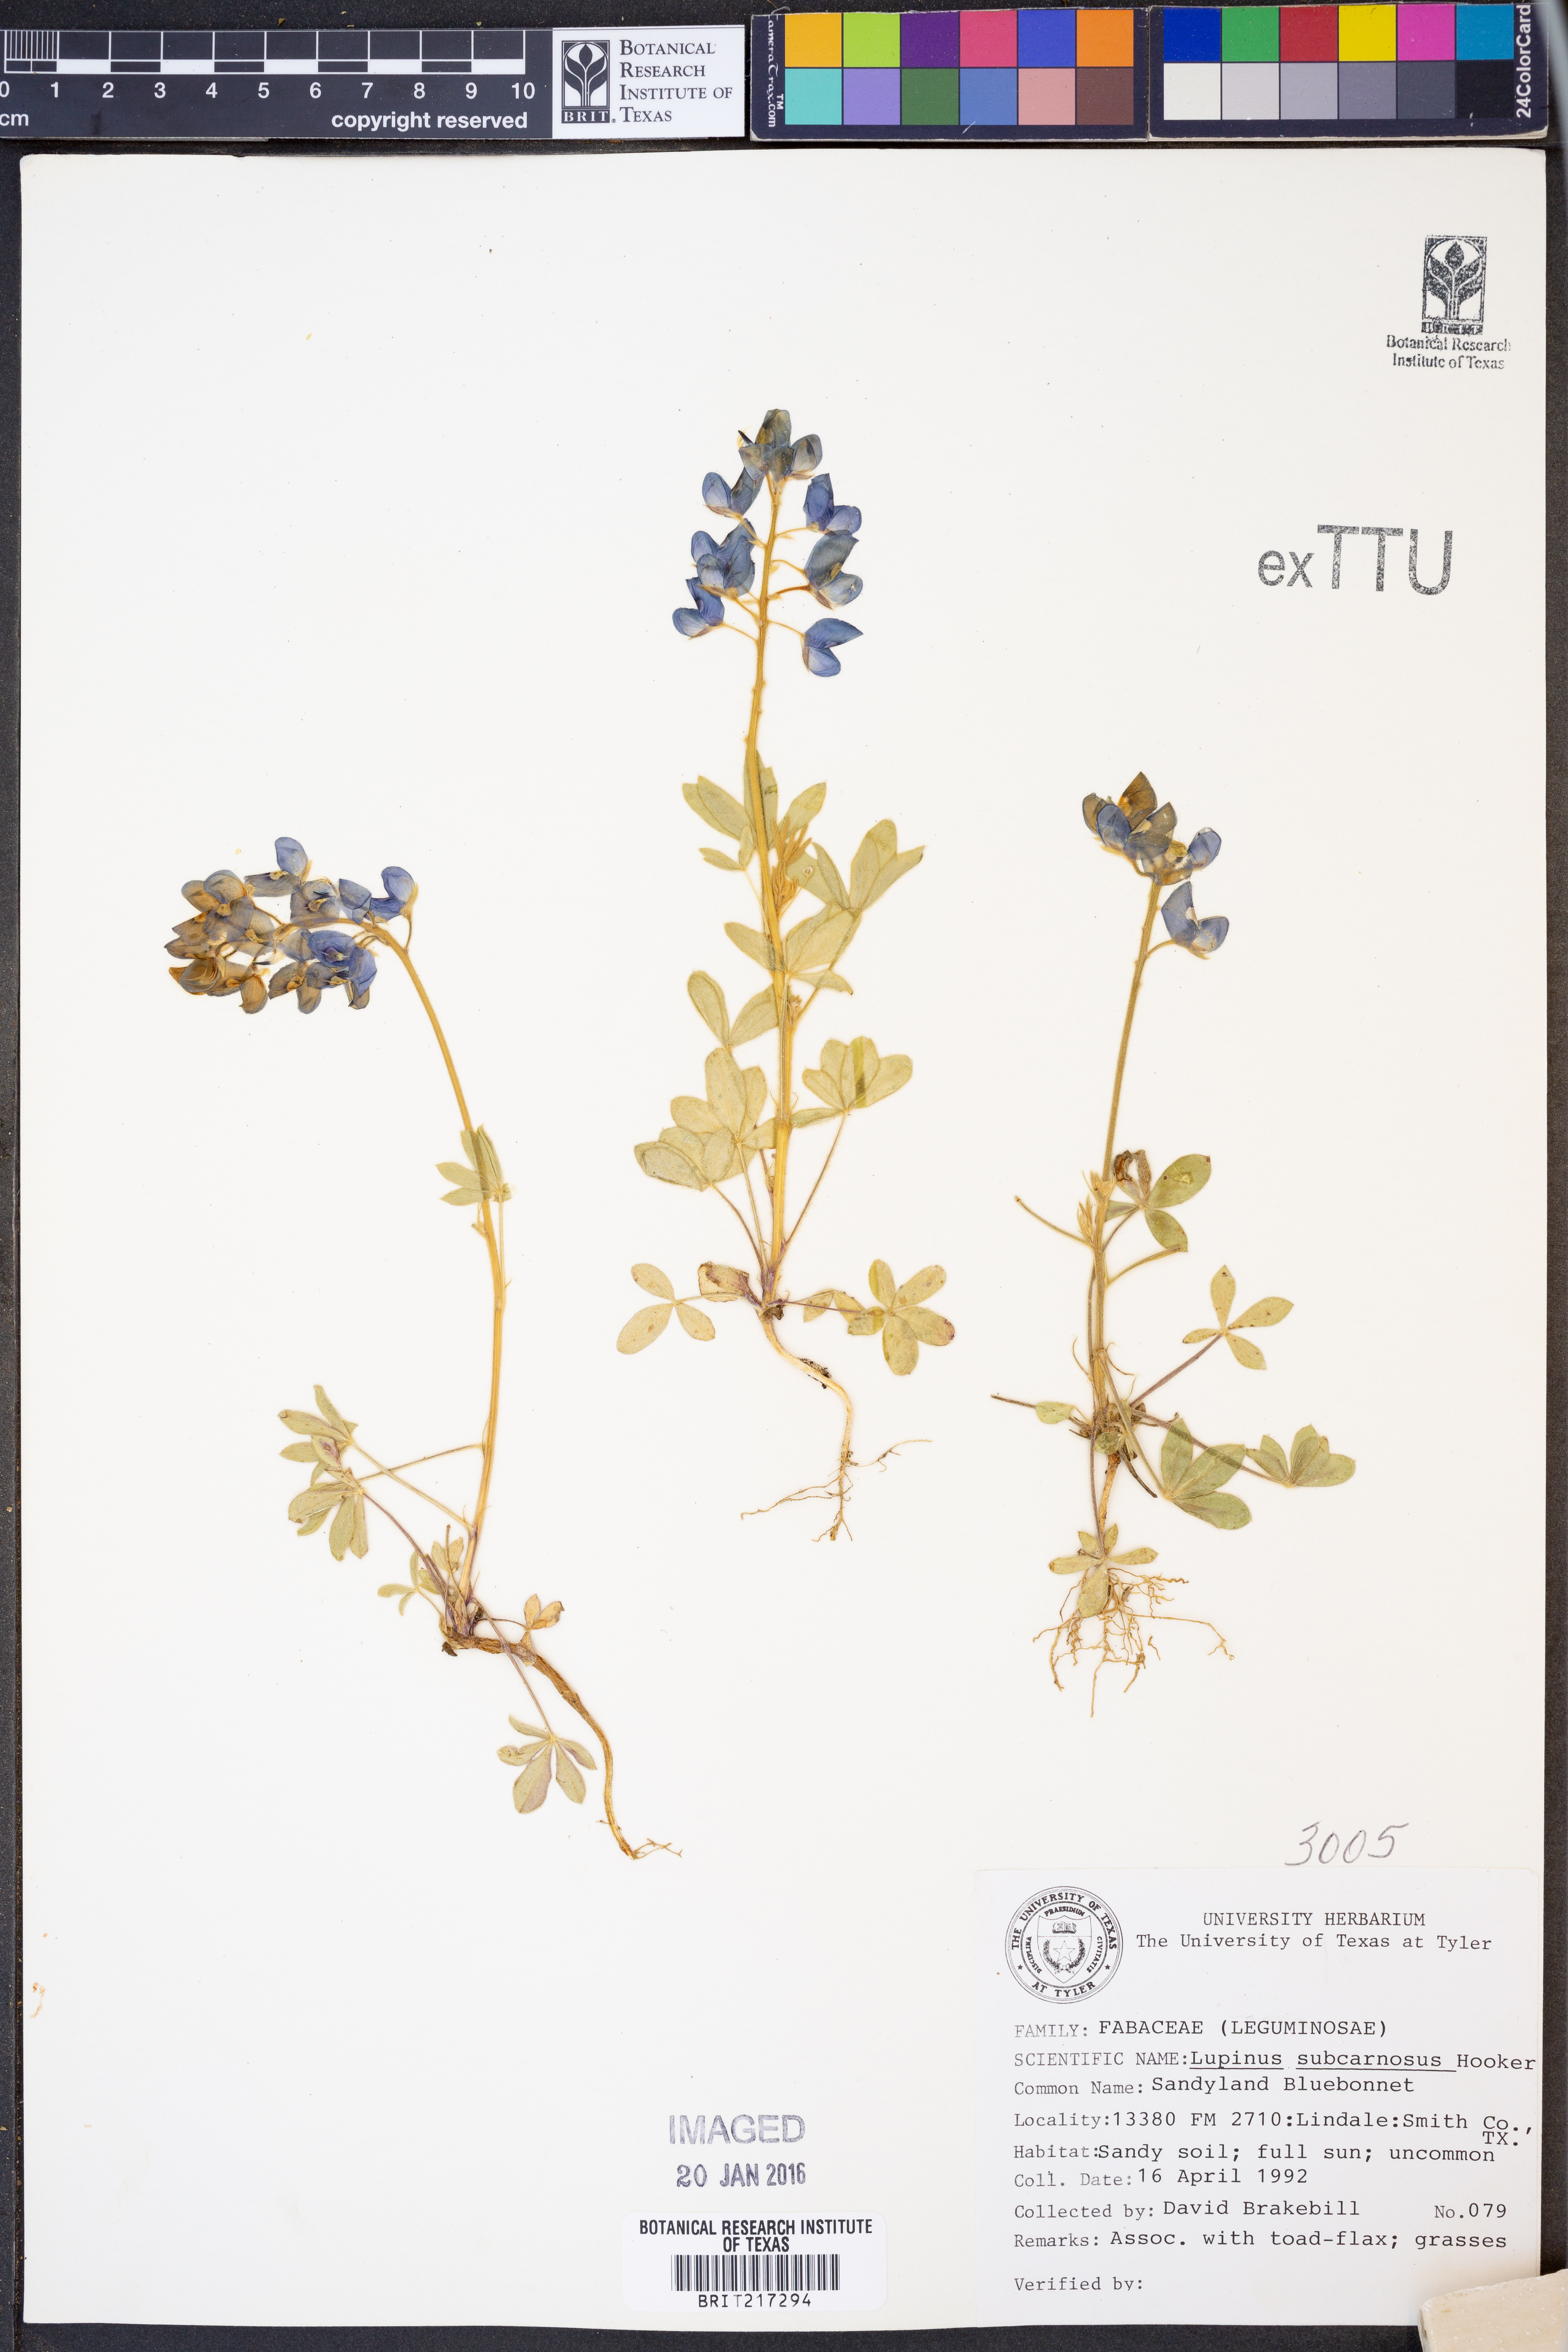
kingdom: Plantae
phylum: Tracheophyta
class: Magnoliopsida
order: Fabales
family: Fabaceae
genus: Lupinus
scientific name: Lupinus subcarnosus
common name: Texas bluebonnet
